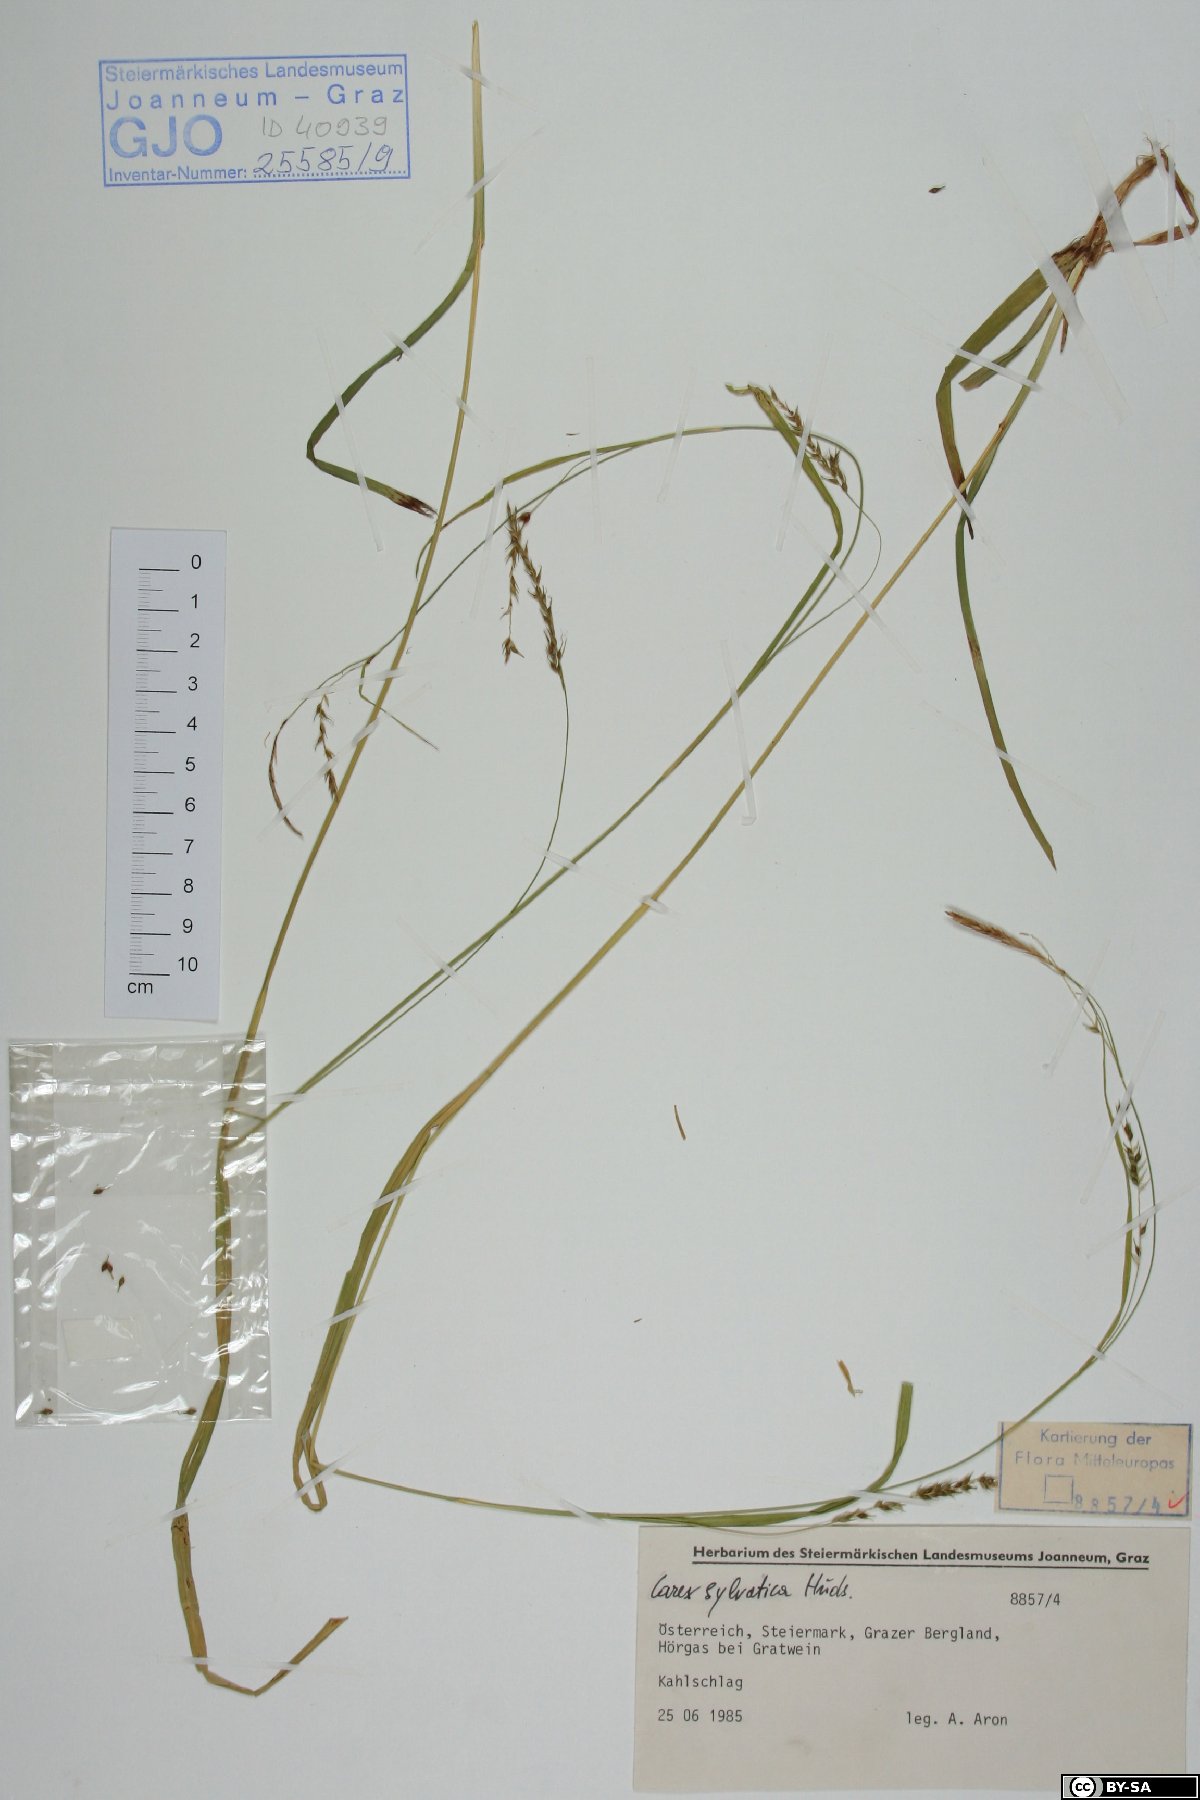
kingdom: Plantae
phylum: Tracheophyta
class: Liliopsida
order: Poales
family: Cyperaceae
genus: Carex
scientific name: Carex sylvatica
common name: Wood-sedge
